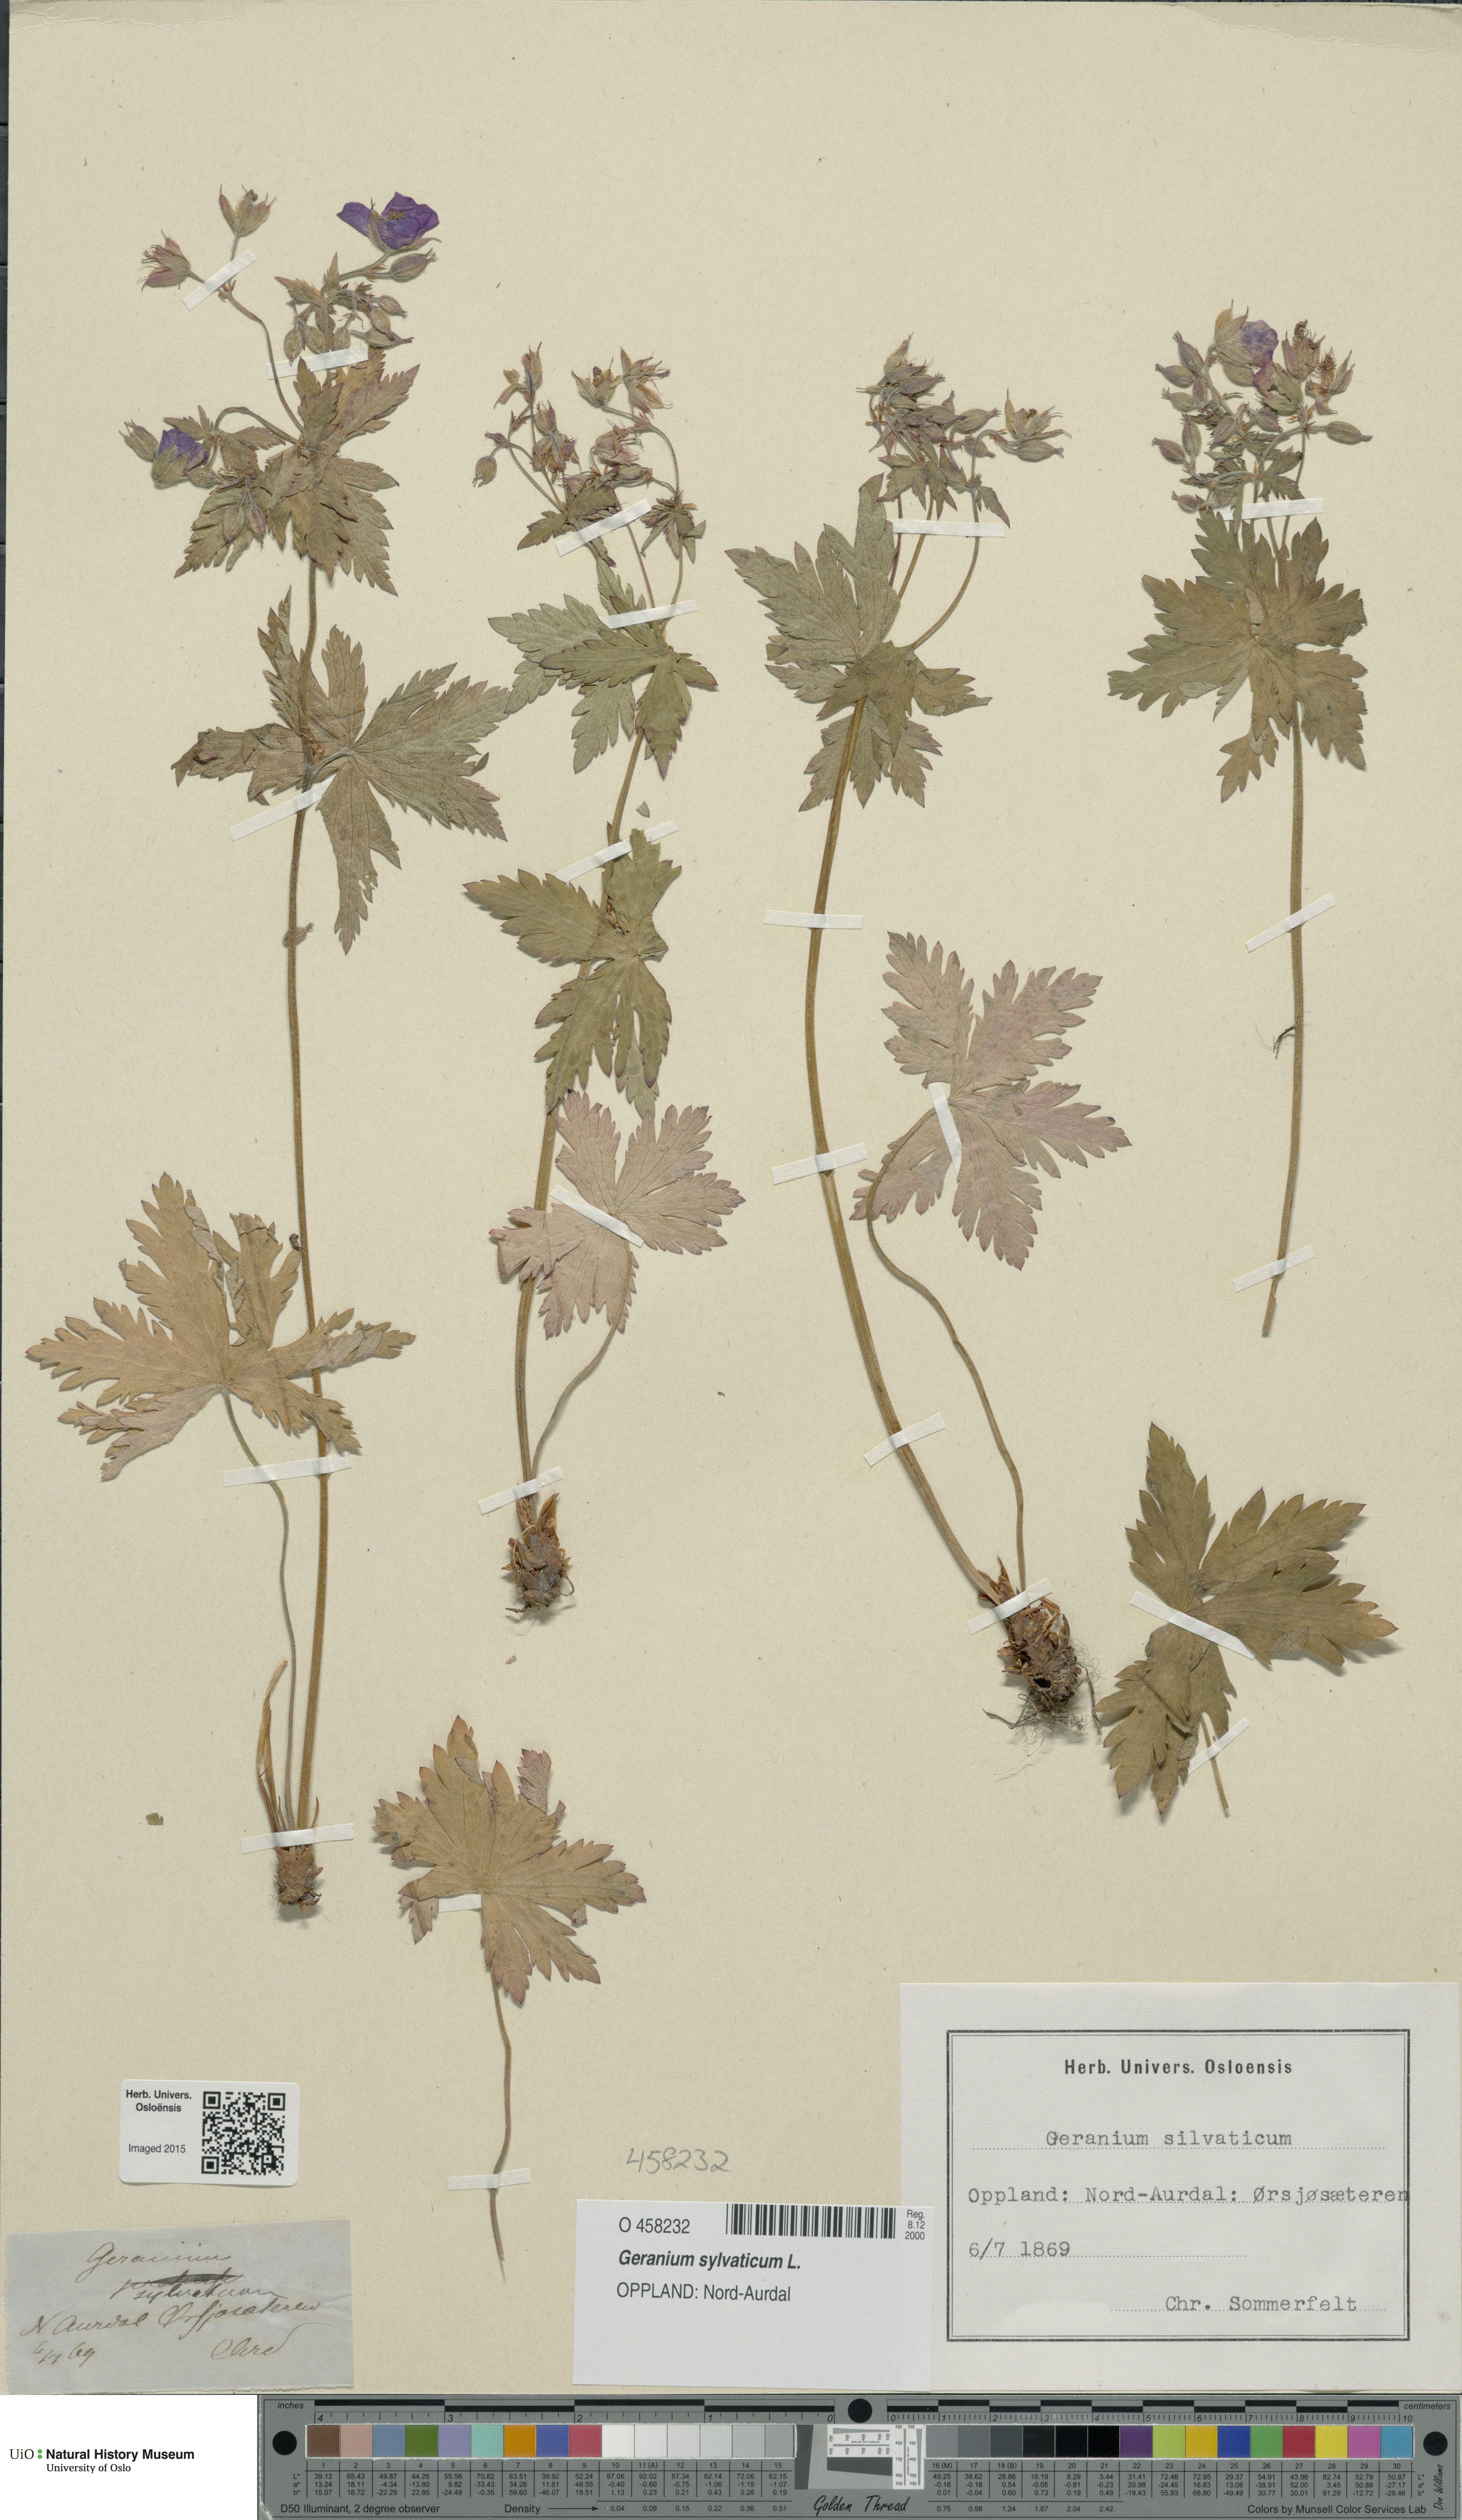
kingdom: Plantae
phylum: Tracheophyta
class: Magnoliopsida
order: Geraniales
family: Geraniaceae
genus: Geranium
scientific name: Geranium sylvaticum
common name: Wood crane's-bill
